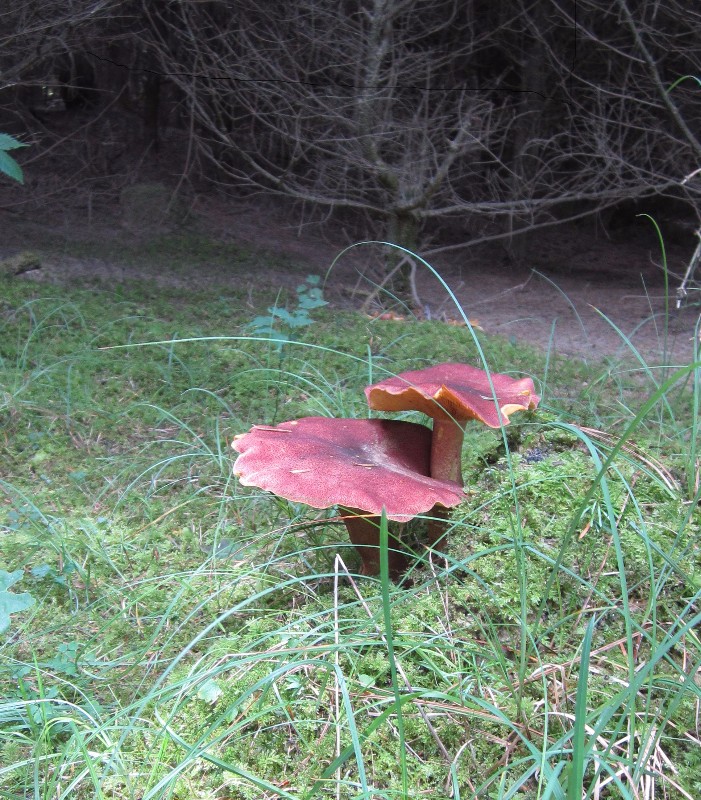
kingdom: Fungi
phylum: Basidiomycota
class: Agaricomycetes
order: Agaricales
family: Tricholomataceae
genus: Tricholomopsis
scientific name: Tricholomopsis rutilans
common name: purpur-væbnerhat
